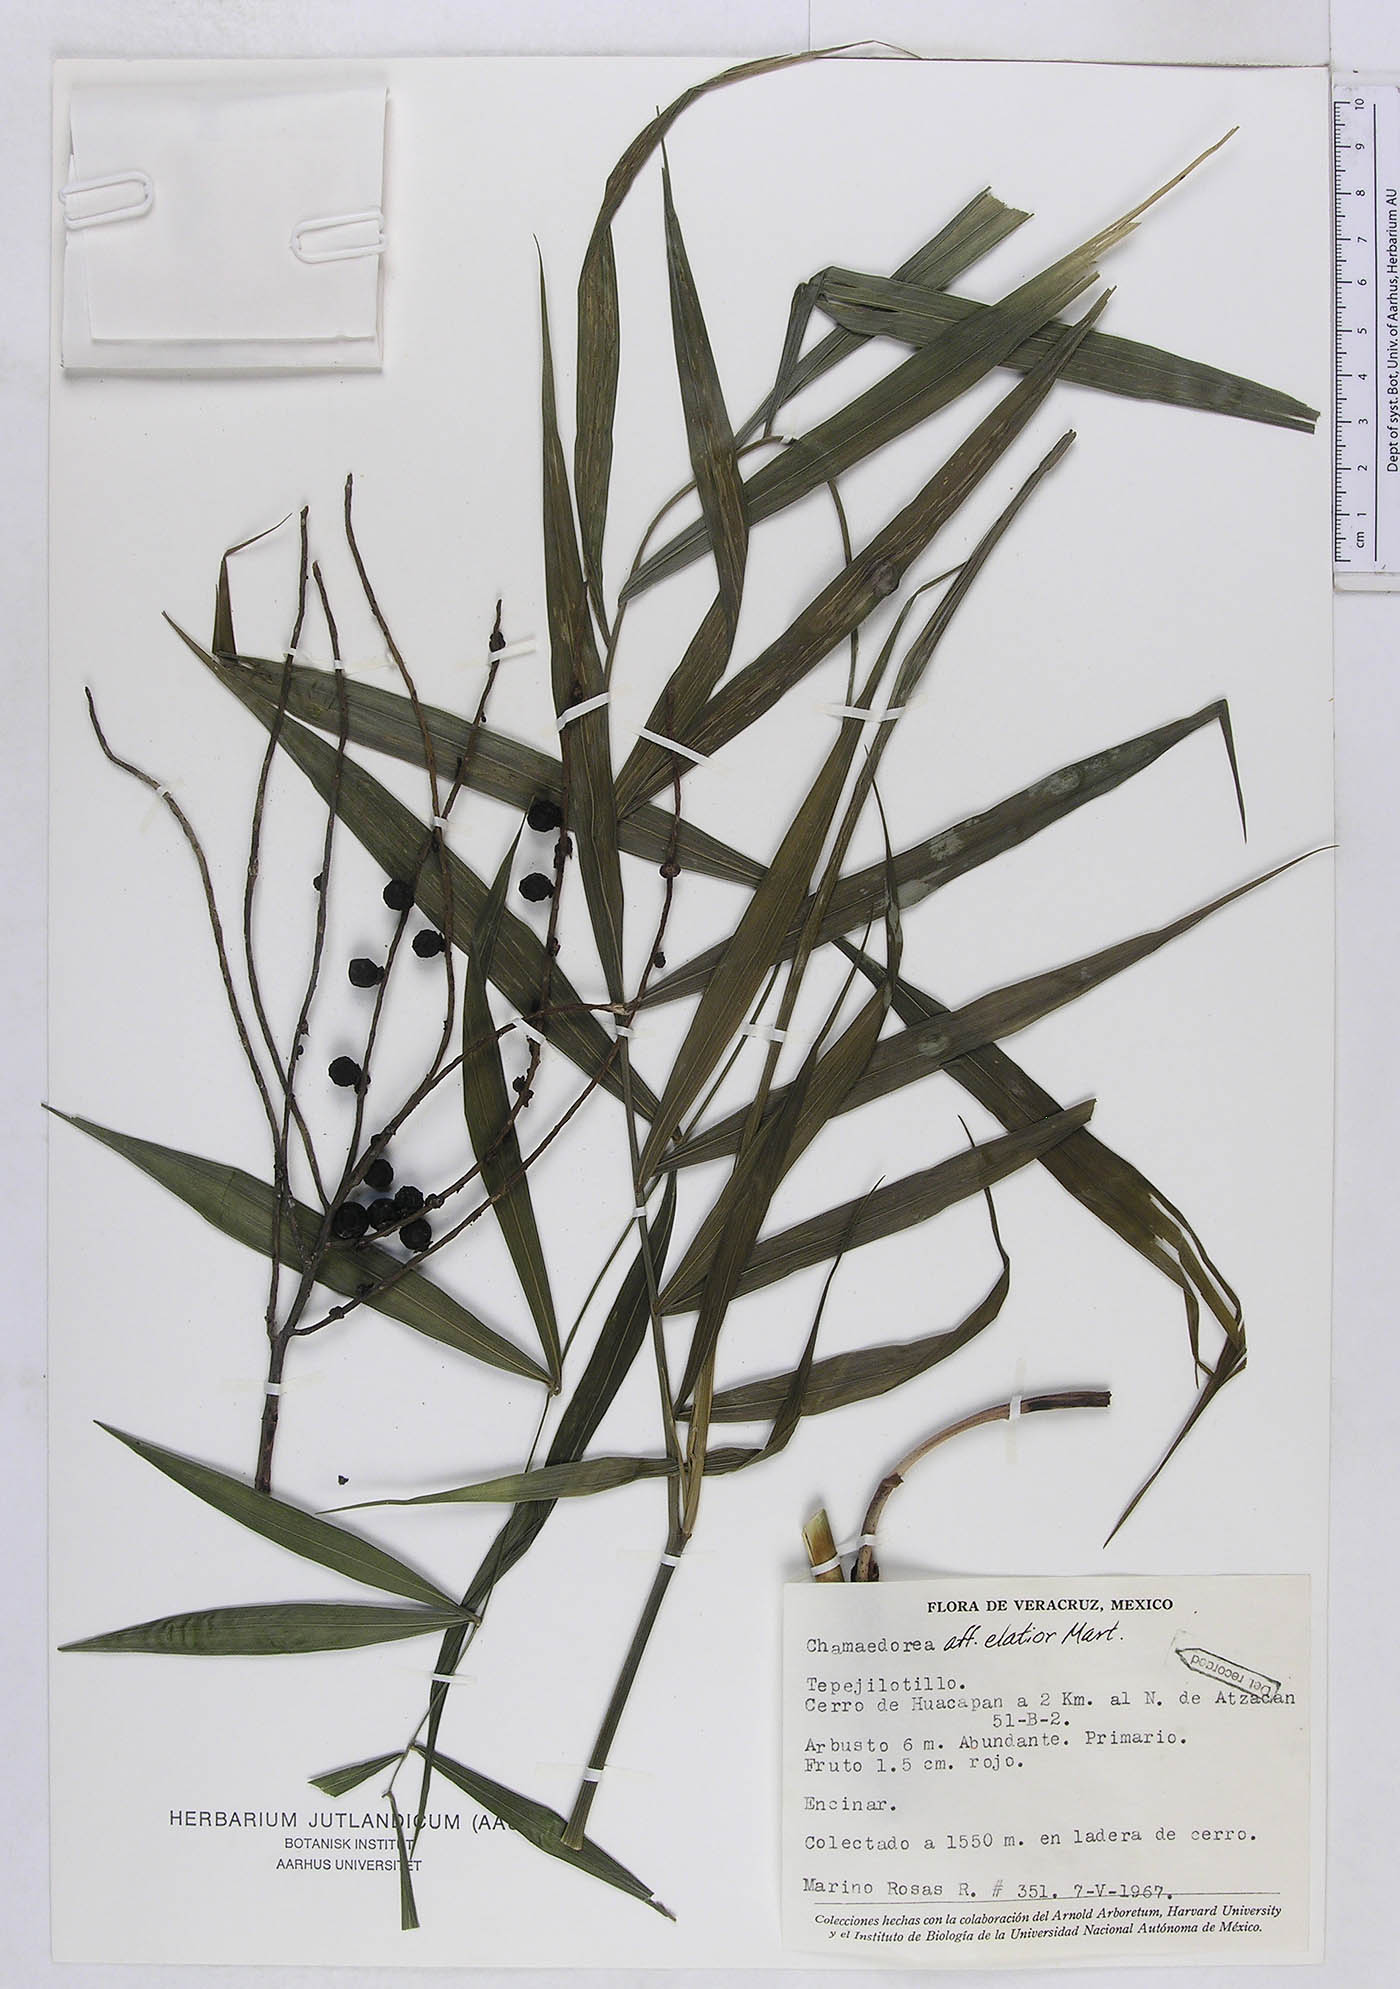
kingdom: Plantae
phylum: Tracheophyta
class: Liliopsida
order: Arecales
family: Arecaceae
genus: Chamaedorea
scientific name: Chamaedorea elatior
